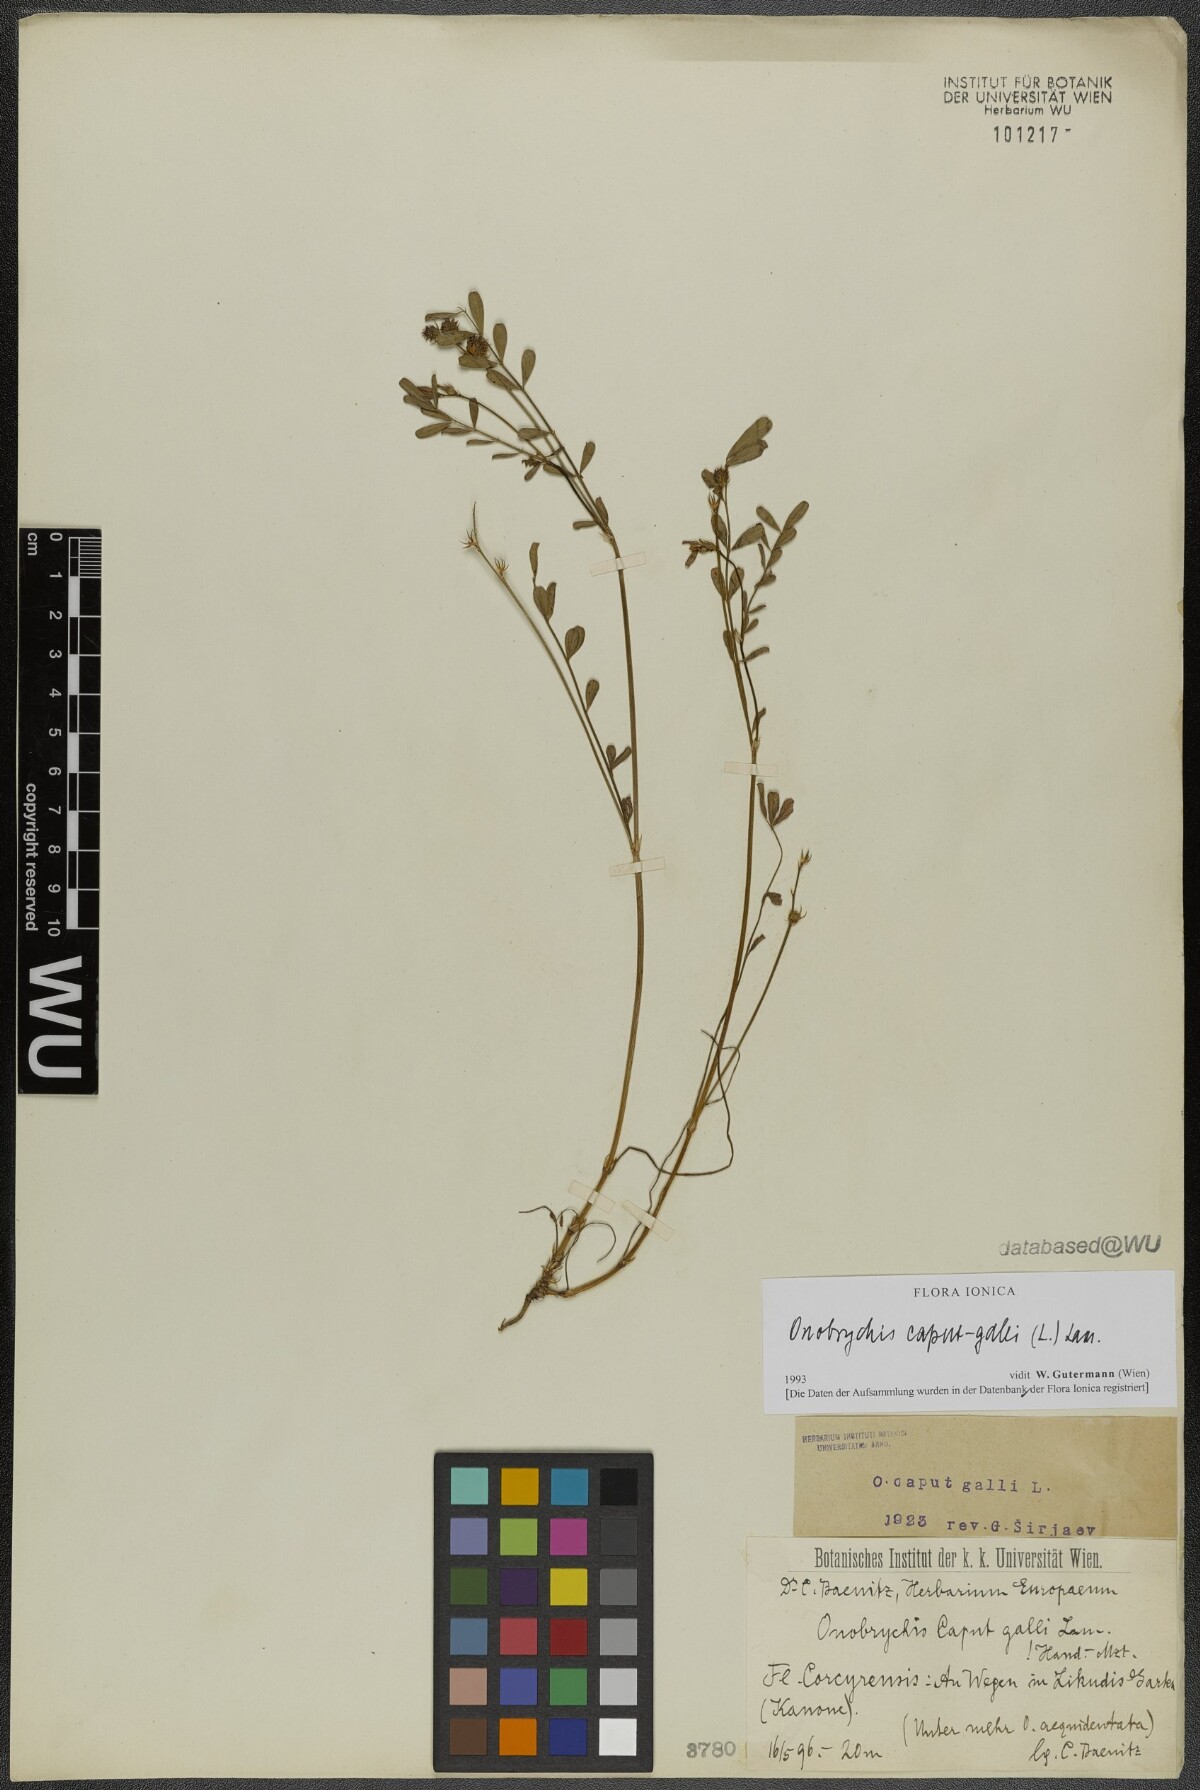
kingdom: Plantae
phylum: Tracheophyta
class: Magnoliopsida
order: Fabales
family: Fabaceae
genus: Onobrychis
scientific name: Onobrychis caput-galli
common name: Cockscomb sainfoin
